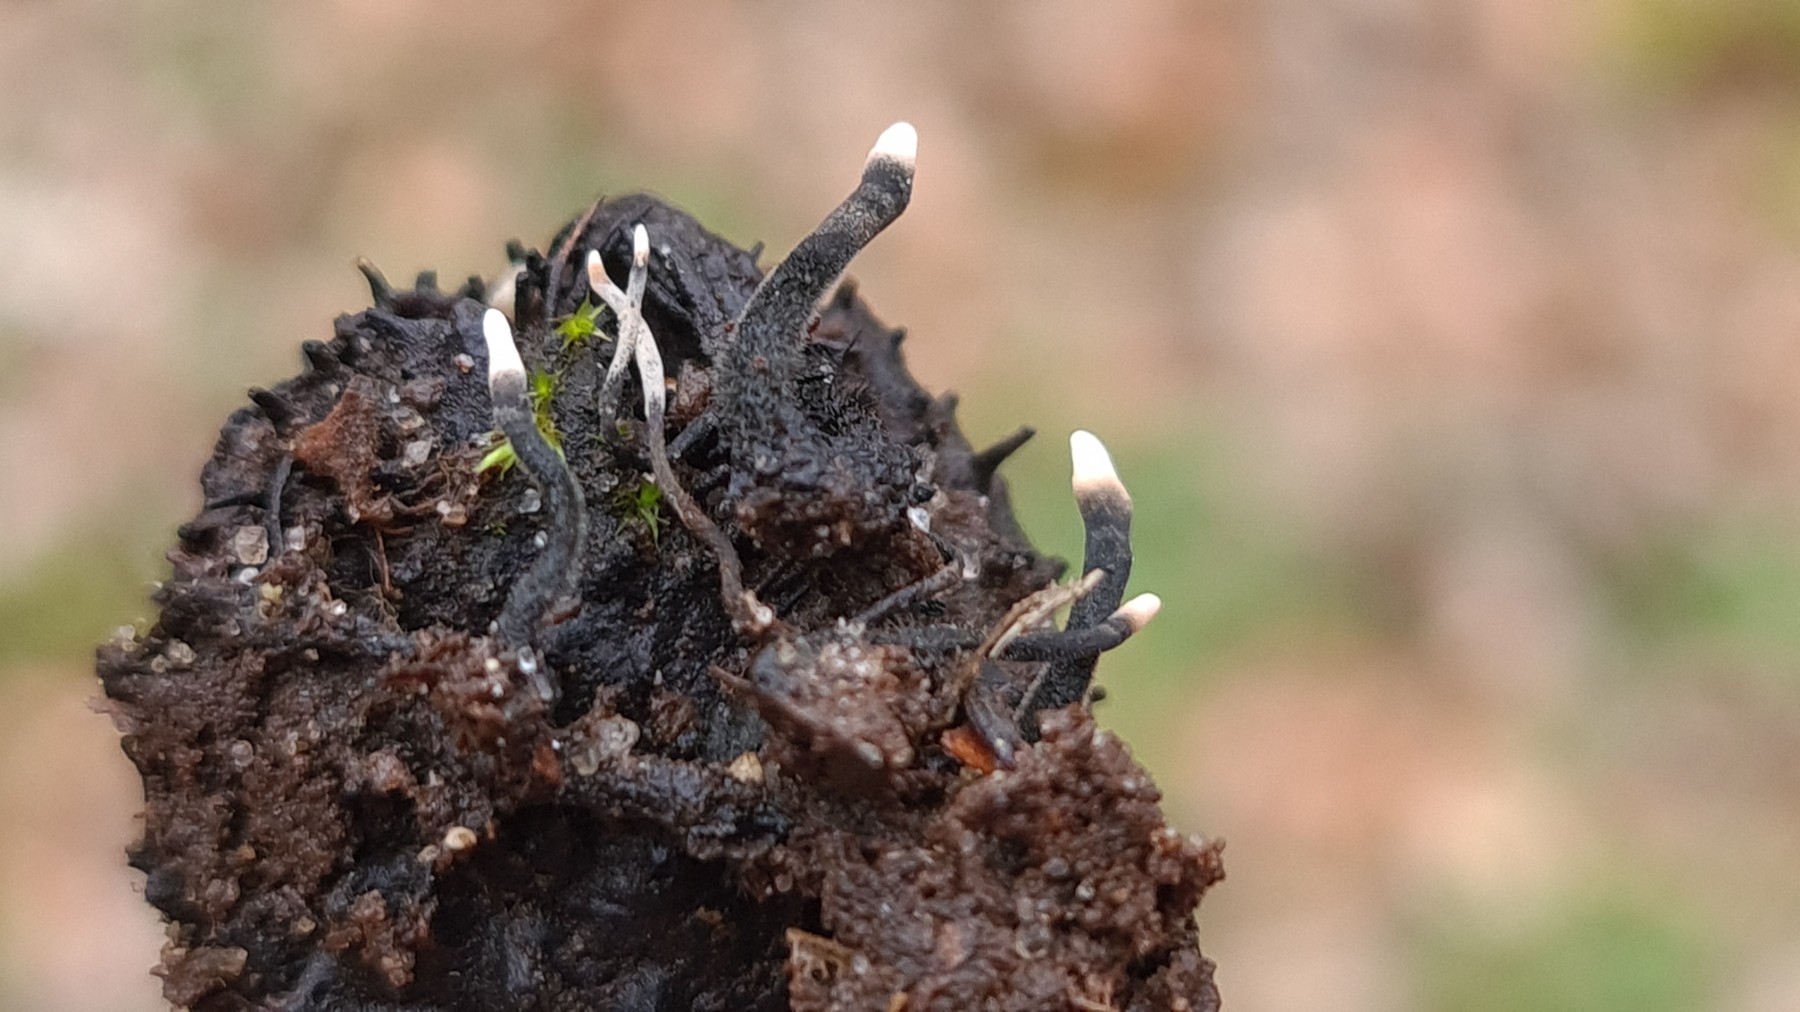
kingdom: Fungi
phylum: Ascomycota
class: Sordariomycetes
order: Xylariales
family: Xylariaceae
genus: Xylaria
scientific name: Xylaria carpophila
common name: bogskål-stødsvamp
